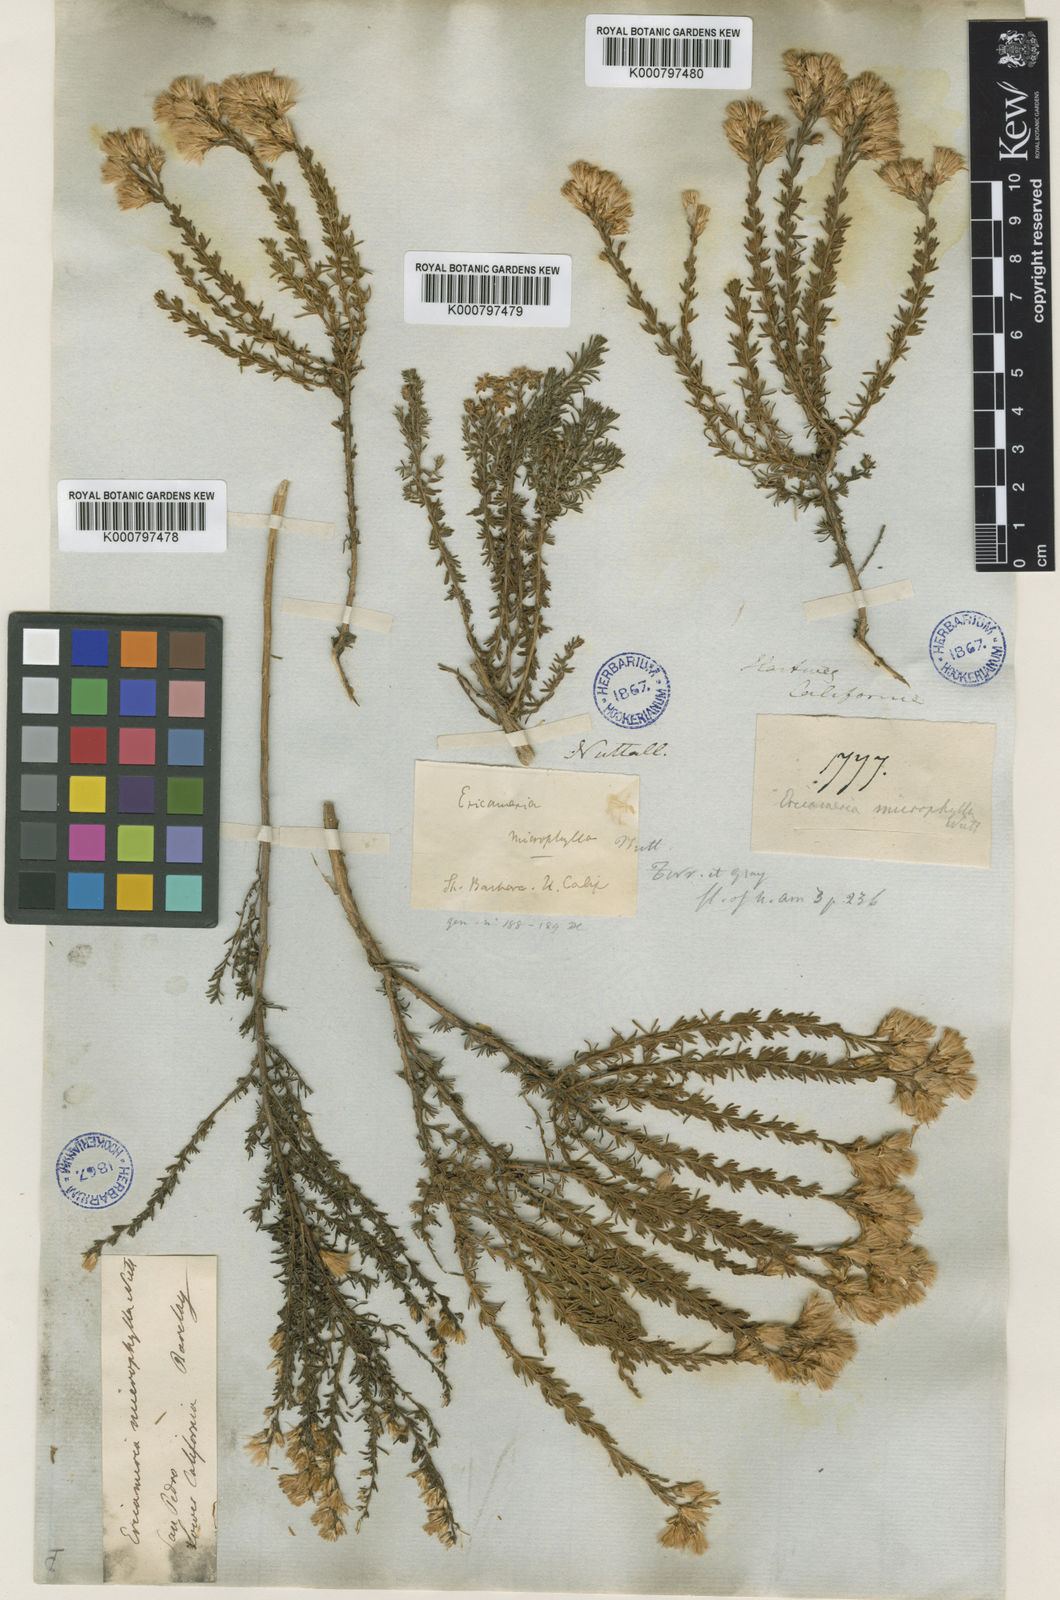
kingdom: Plantae
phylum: Tracheophyta
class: Magnoliopsida
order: Asterales
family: Asteraceae
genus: Ericameria
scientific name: Ericameria ericoides
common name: California goldenbush
